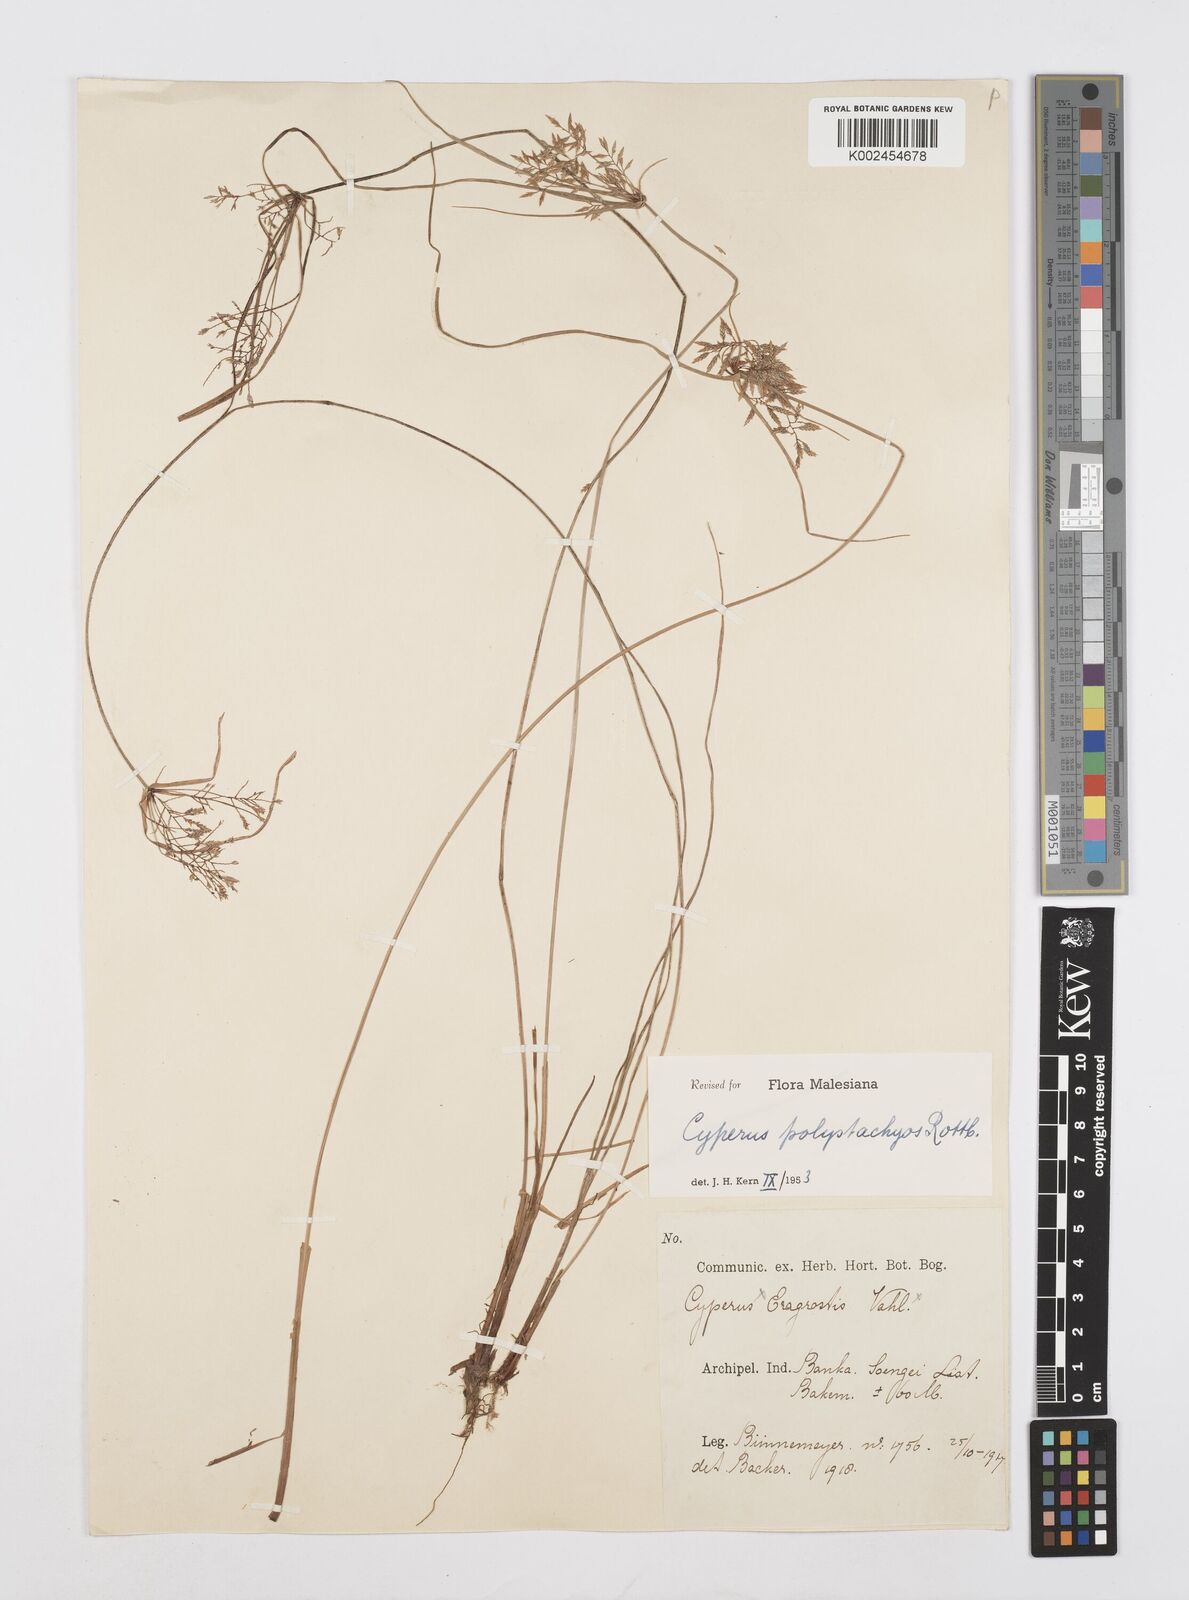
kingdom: Plantae
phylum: Tracheophyta
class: Liliopsida
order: Poales
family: Cyperaceae
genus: Cyperus
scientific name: Cyperus polystachyos
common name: Bunchy flat sedge
